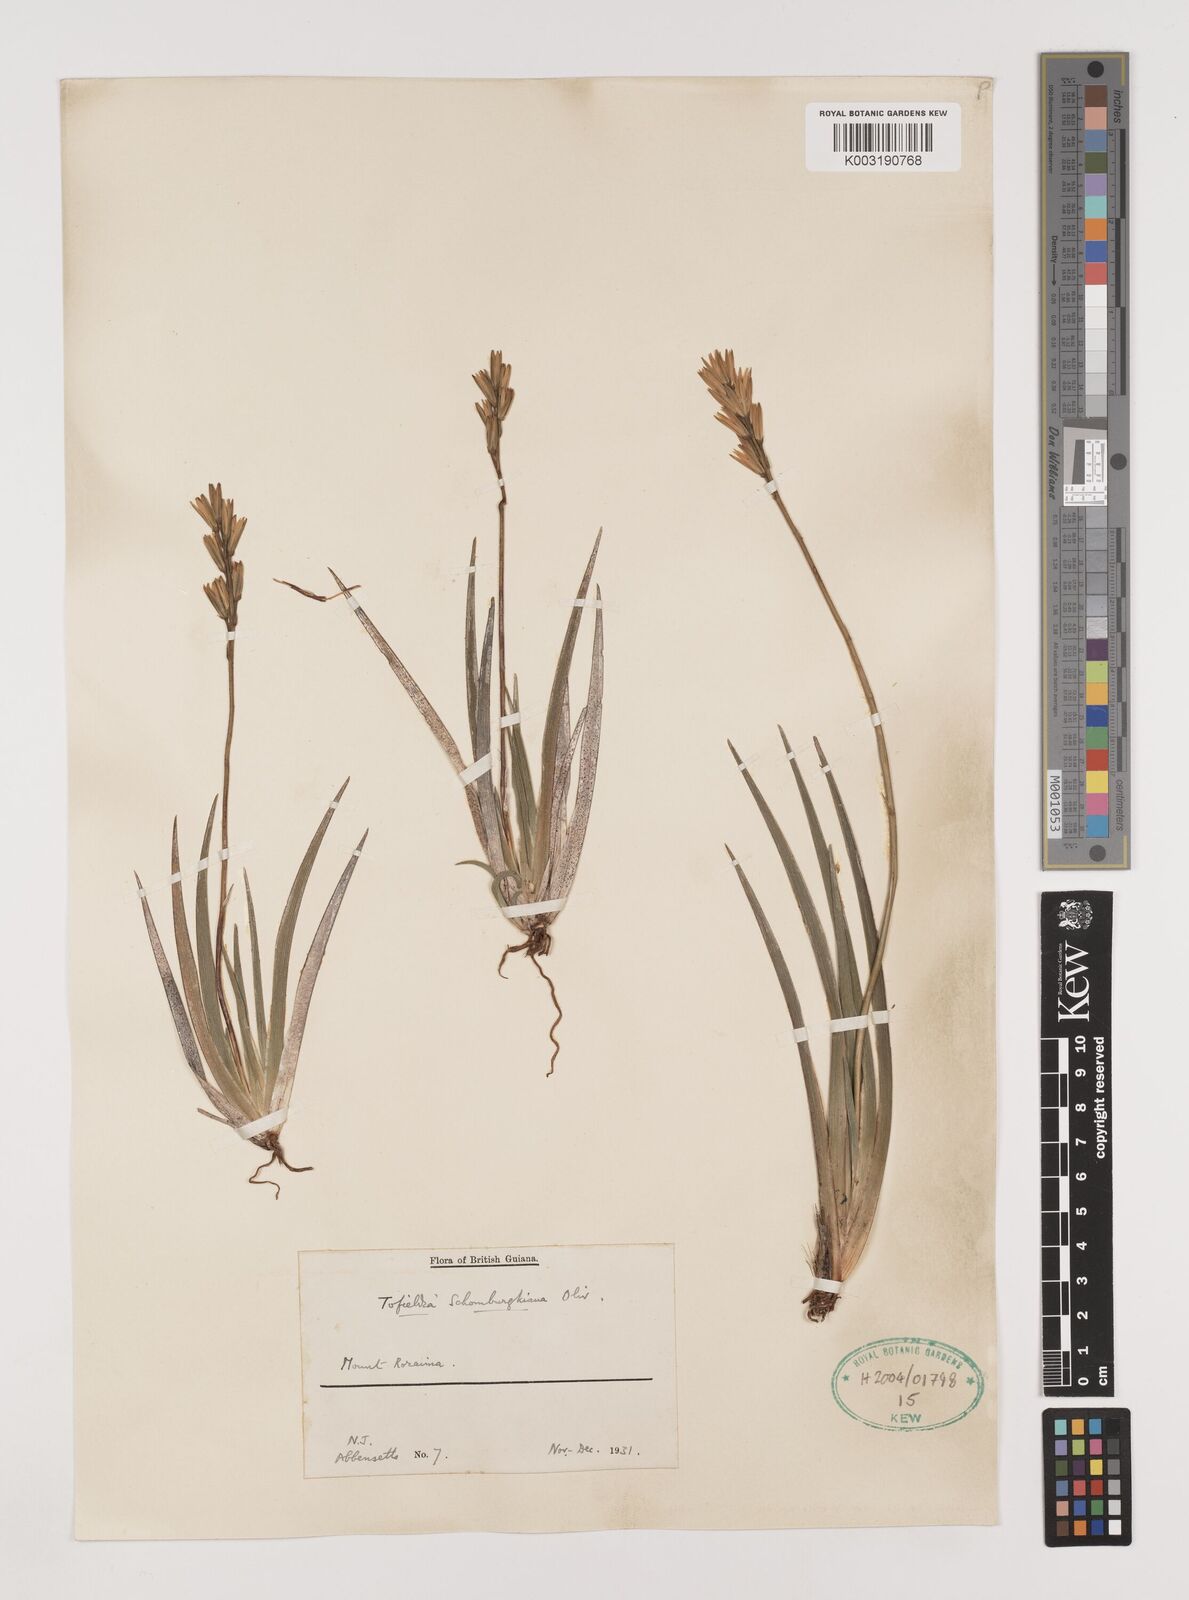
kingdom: Plantae
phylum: Tracheophyta
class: Liliopsida
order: Alismatales
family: Tofieldiaceae
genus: Harperocallis
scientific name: Harperocallis schomburgkiana
